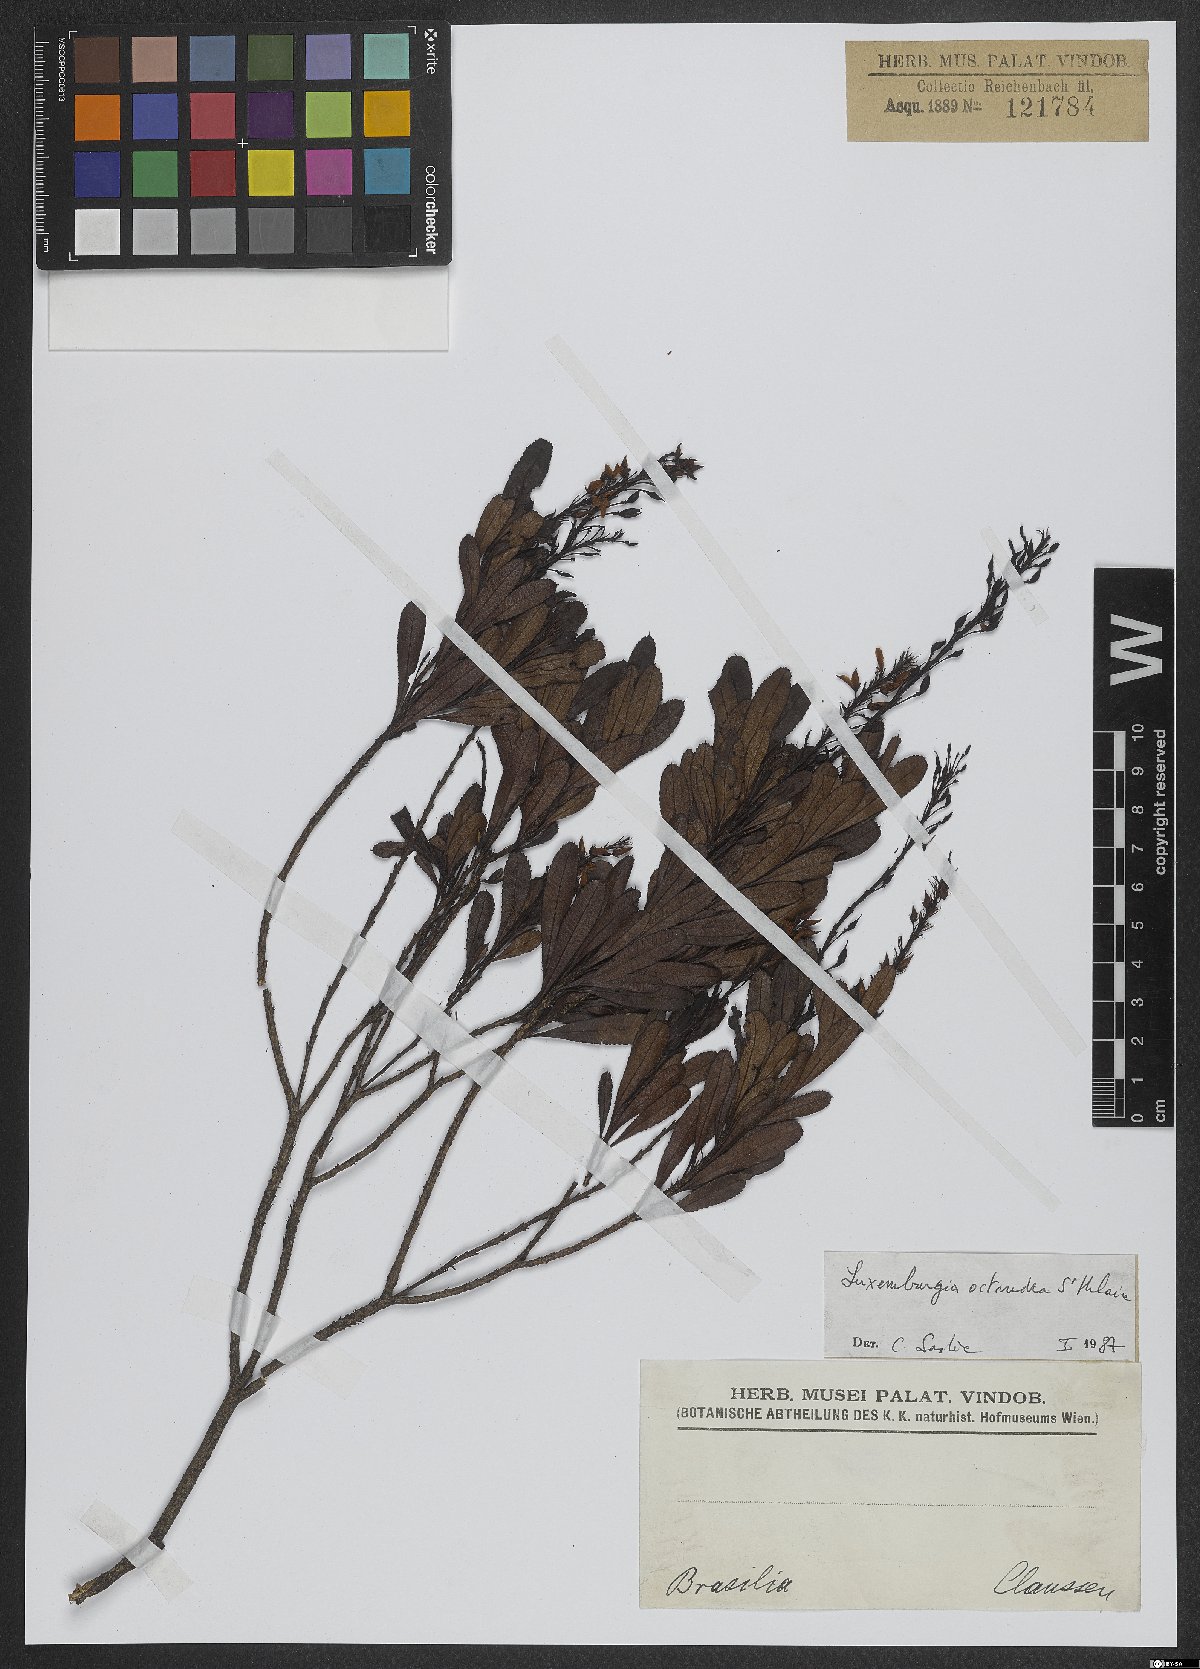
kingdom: Plantae
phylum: Tracheophyta
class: Magnoliopsida
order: Malpighiales
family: Ochnaceae
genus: Luxemburgia
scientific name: Luxemburgia octandra
